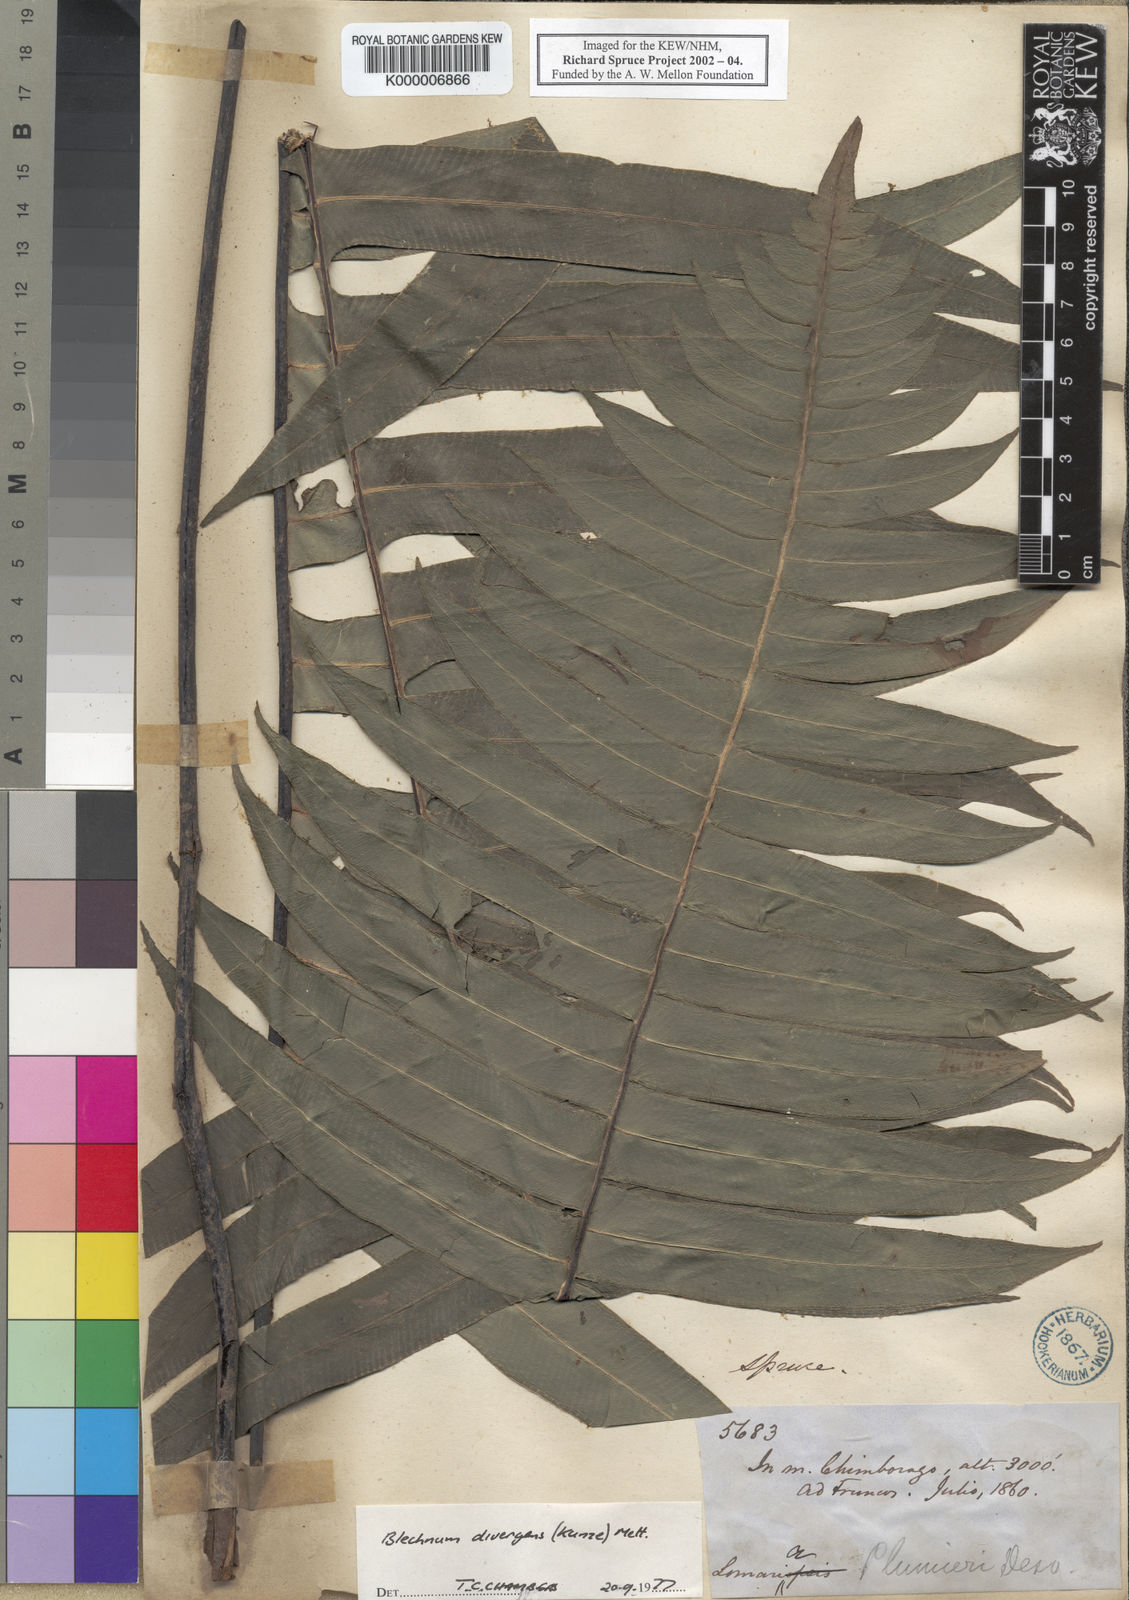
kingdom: Plantae
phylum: Tracheophyta
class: Polypodiopsida
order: Polypodiales
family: Blechnaceae
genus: Austroblechnum
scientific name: Austroblechnum divergens
